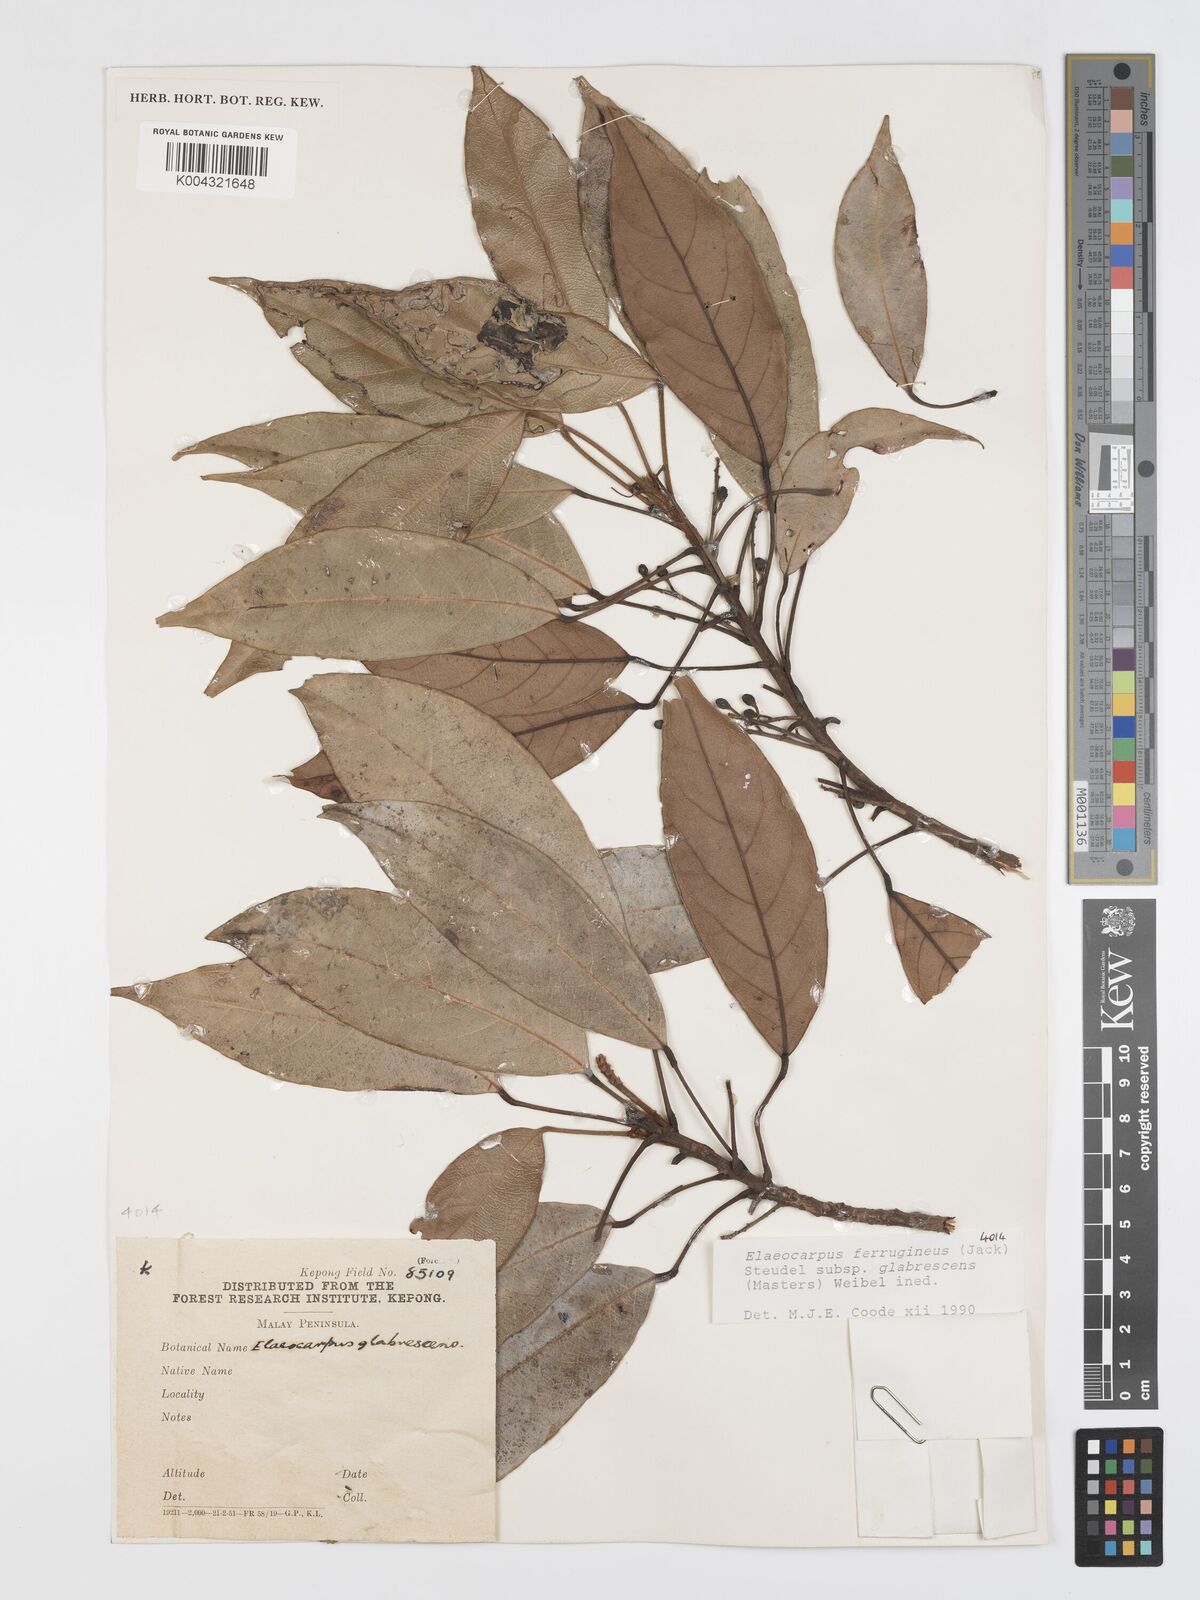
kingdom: Plantae
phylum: Tracheophyta
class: Magnoliopsida
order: Oxalidales
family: Elaeocarpaceae
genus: Elaeocarpus
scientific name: Elaeocarpus ferrugineus
